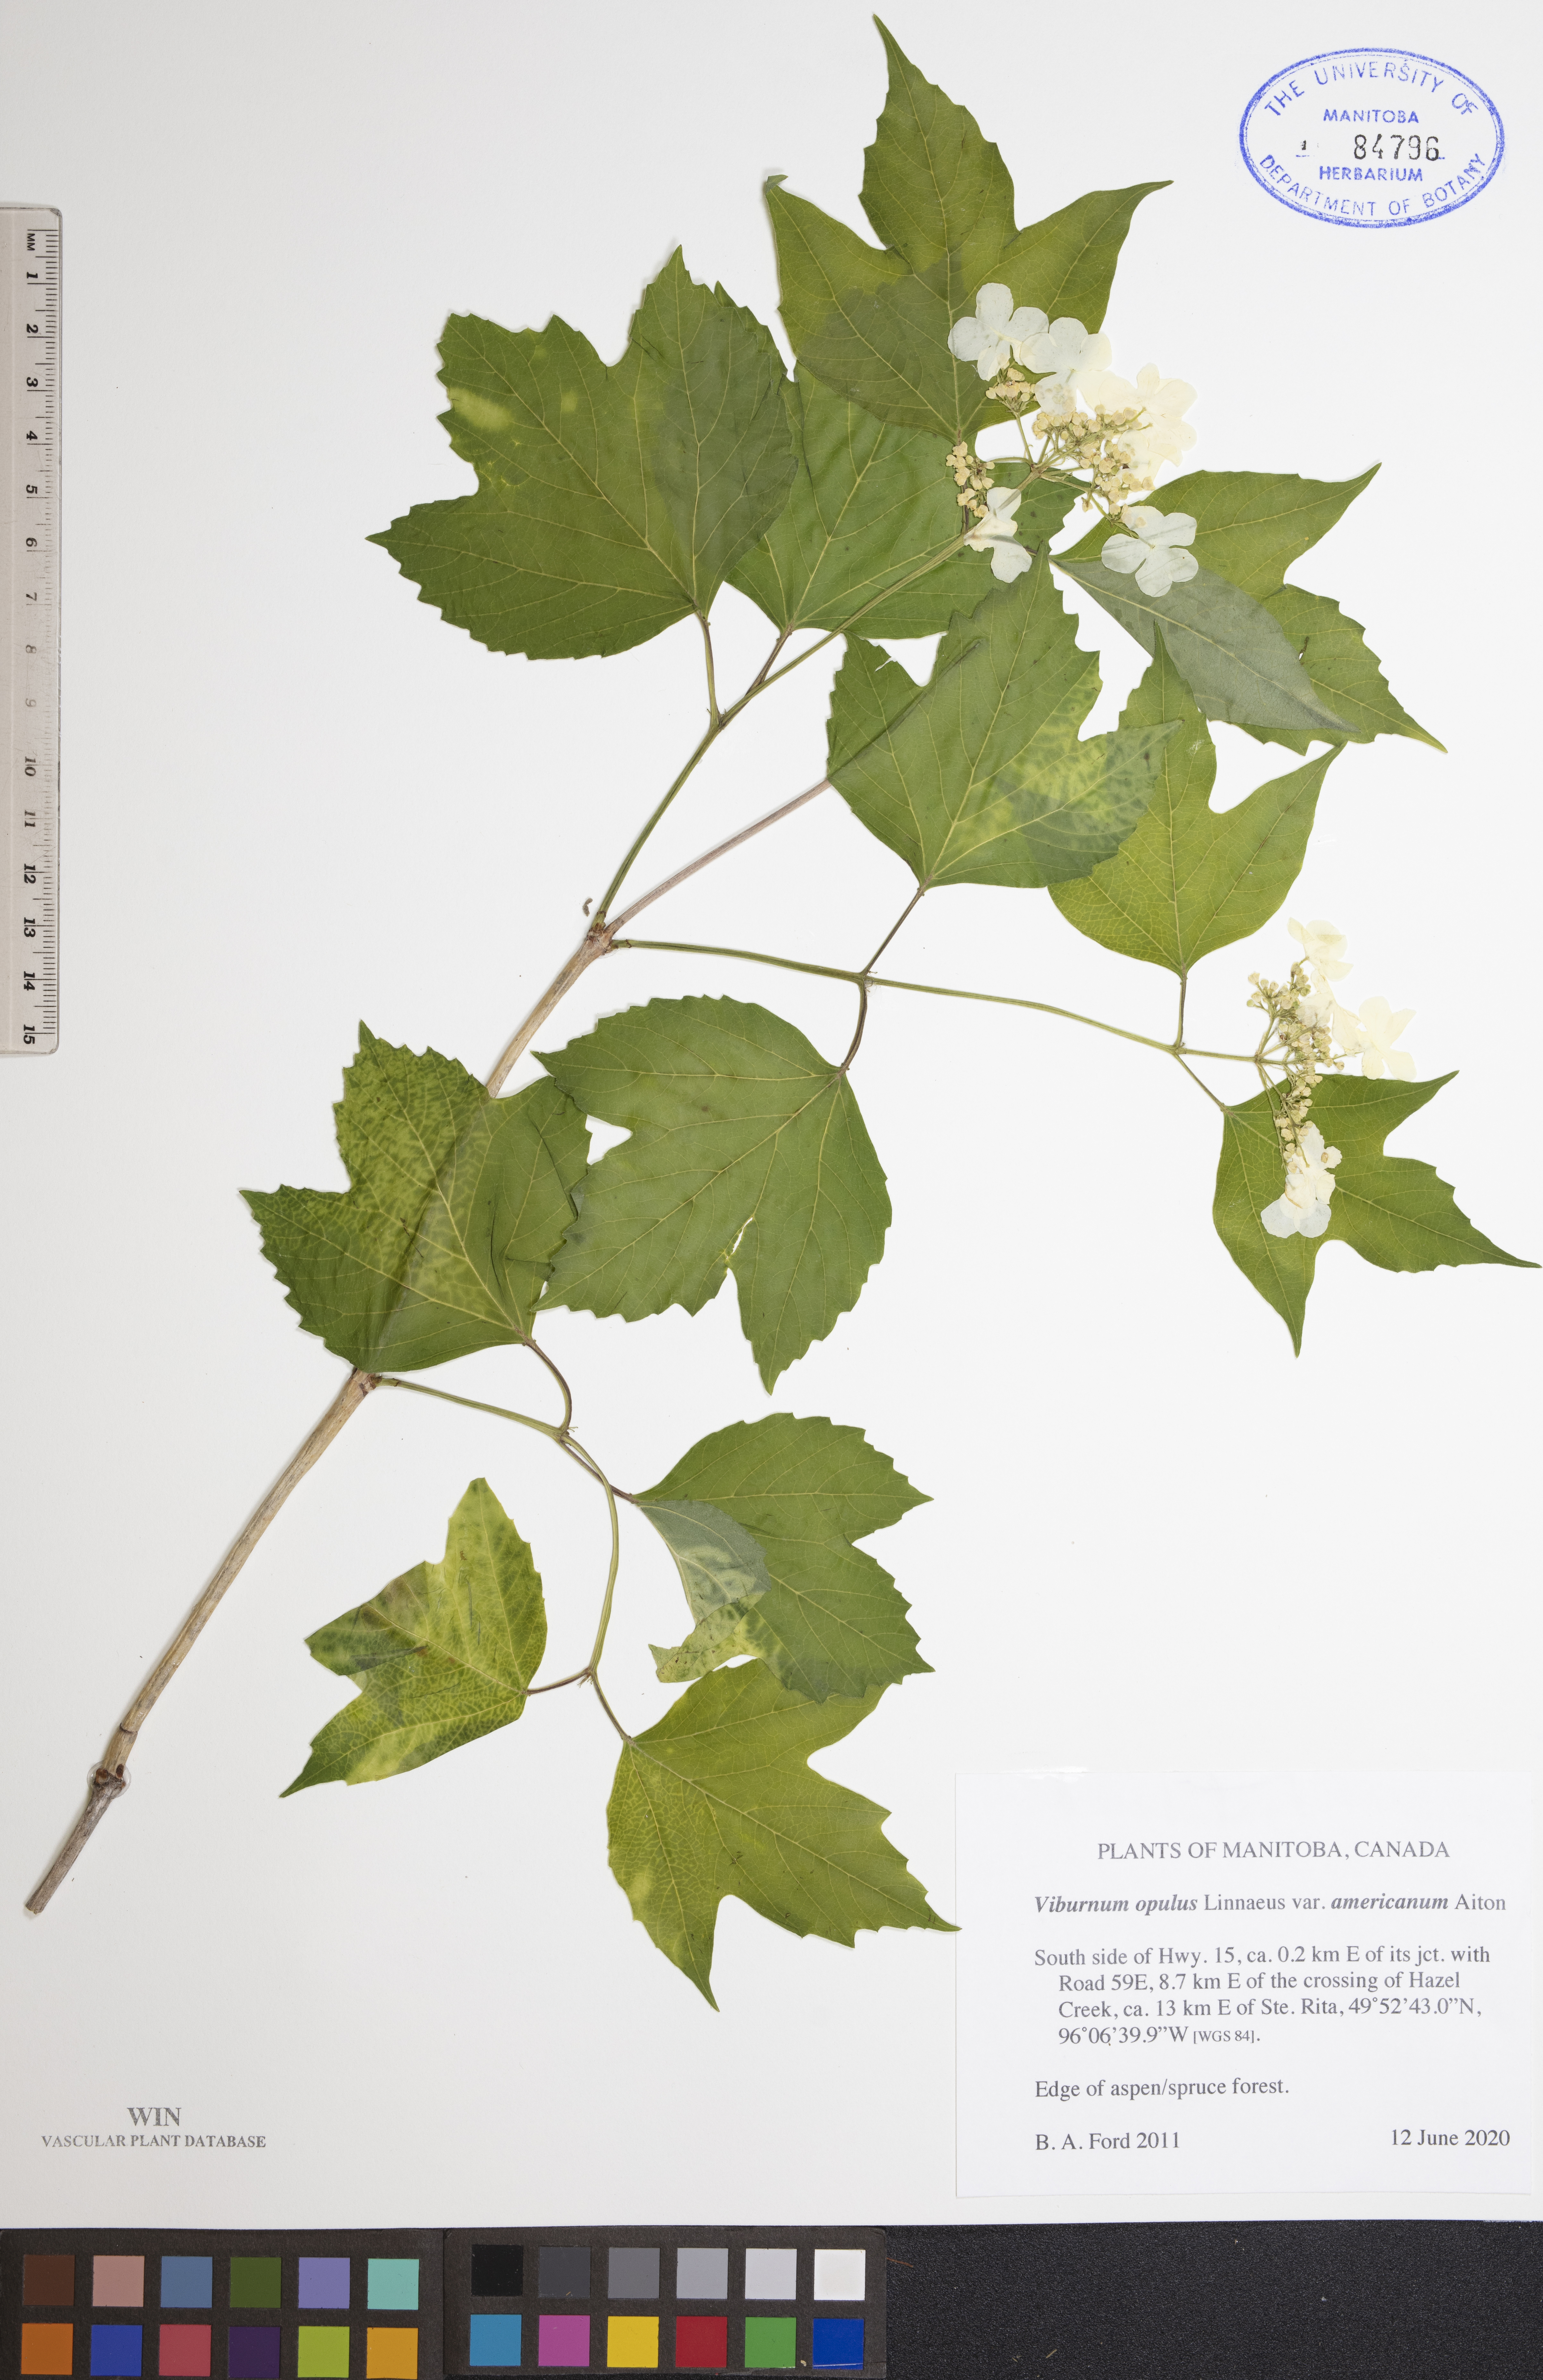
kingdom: Plantae
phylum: Tracheophyta
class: Magnoliopsida
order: Dipsacales
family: Viburnaceae
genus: Viburnum
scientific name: Viburnum trilobum
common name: American cranberrybush
